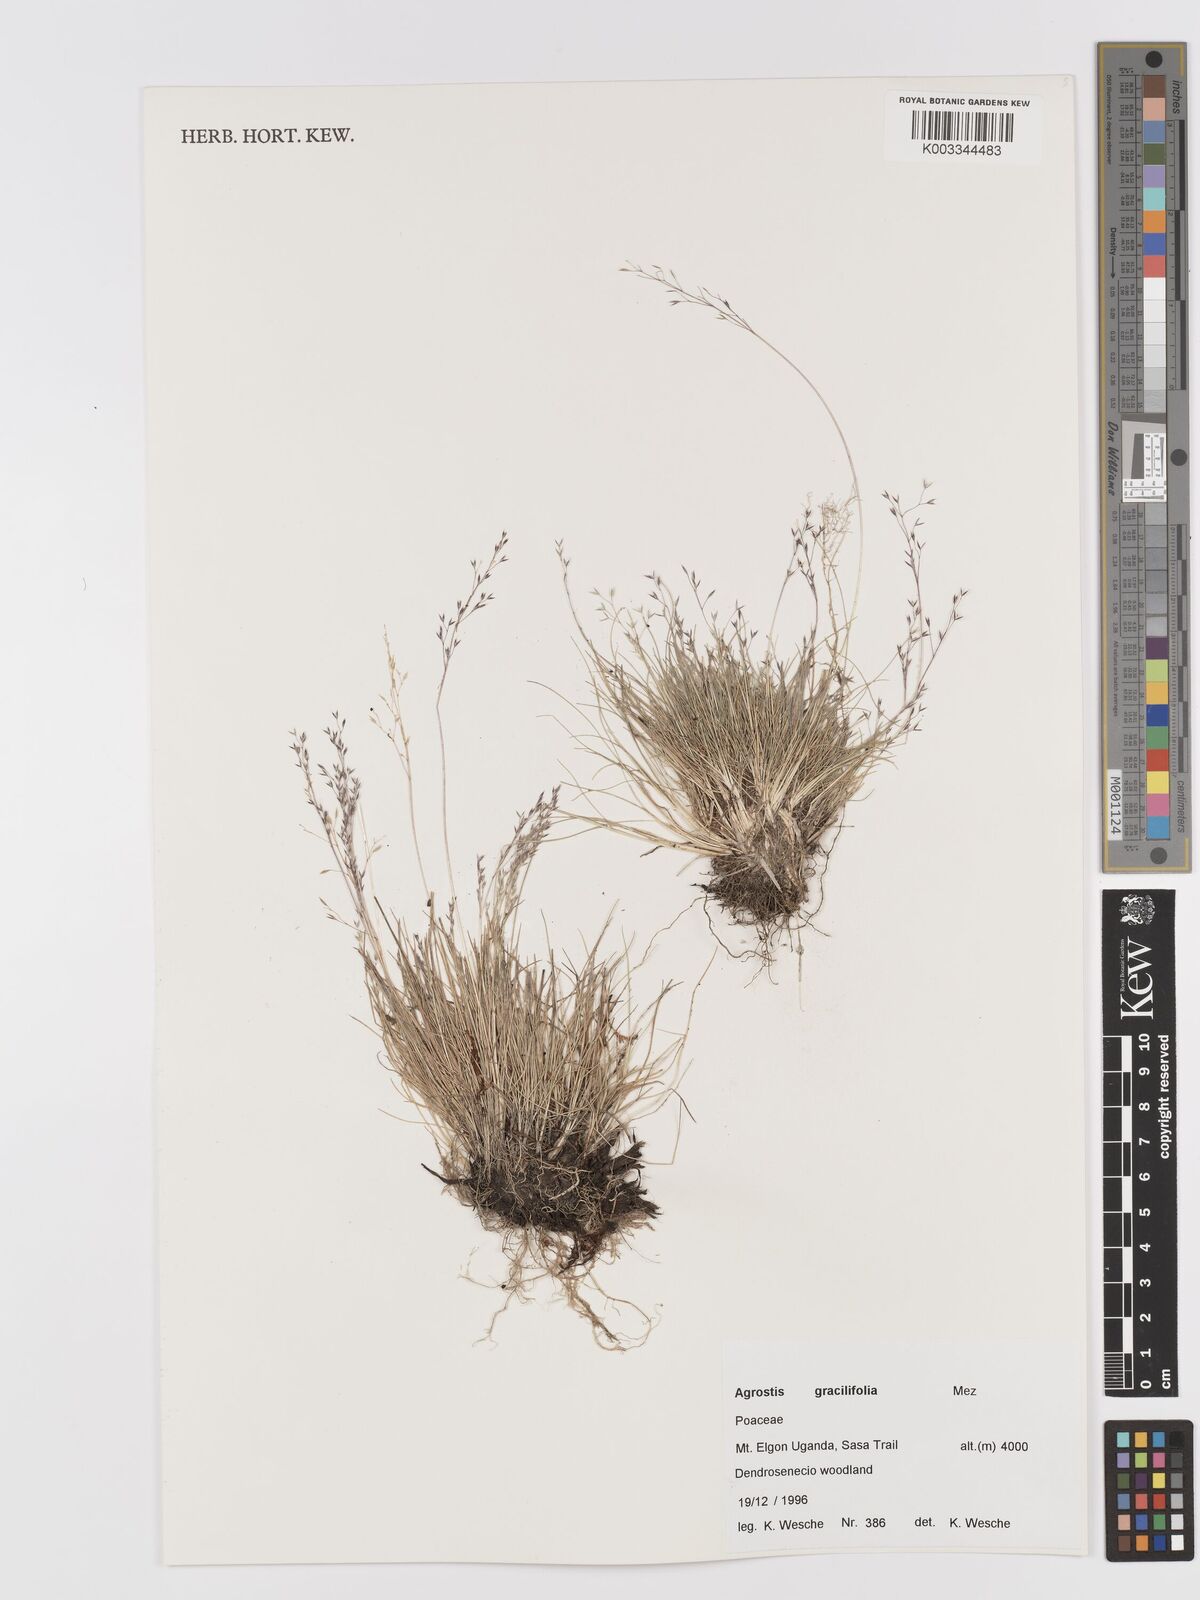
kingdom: Plantae
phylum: Tracheophyta
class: Liliopsida
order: Poales
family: Poaceae
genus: Agrostis
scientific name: Agrostis gracilifolia
